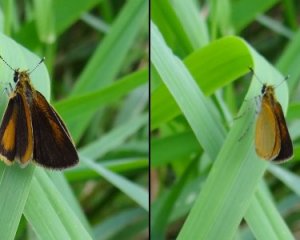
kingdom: Animalia
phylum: Arthropoda
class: Insecta
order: Lepidoptera
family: Hesperiidae
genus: Ancyloxypha
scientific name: Ancyloxypha numitor
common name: Least Skipper
